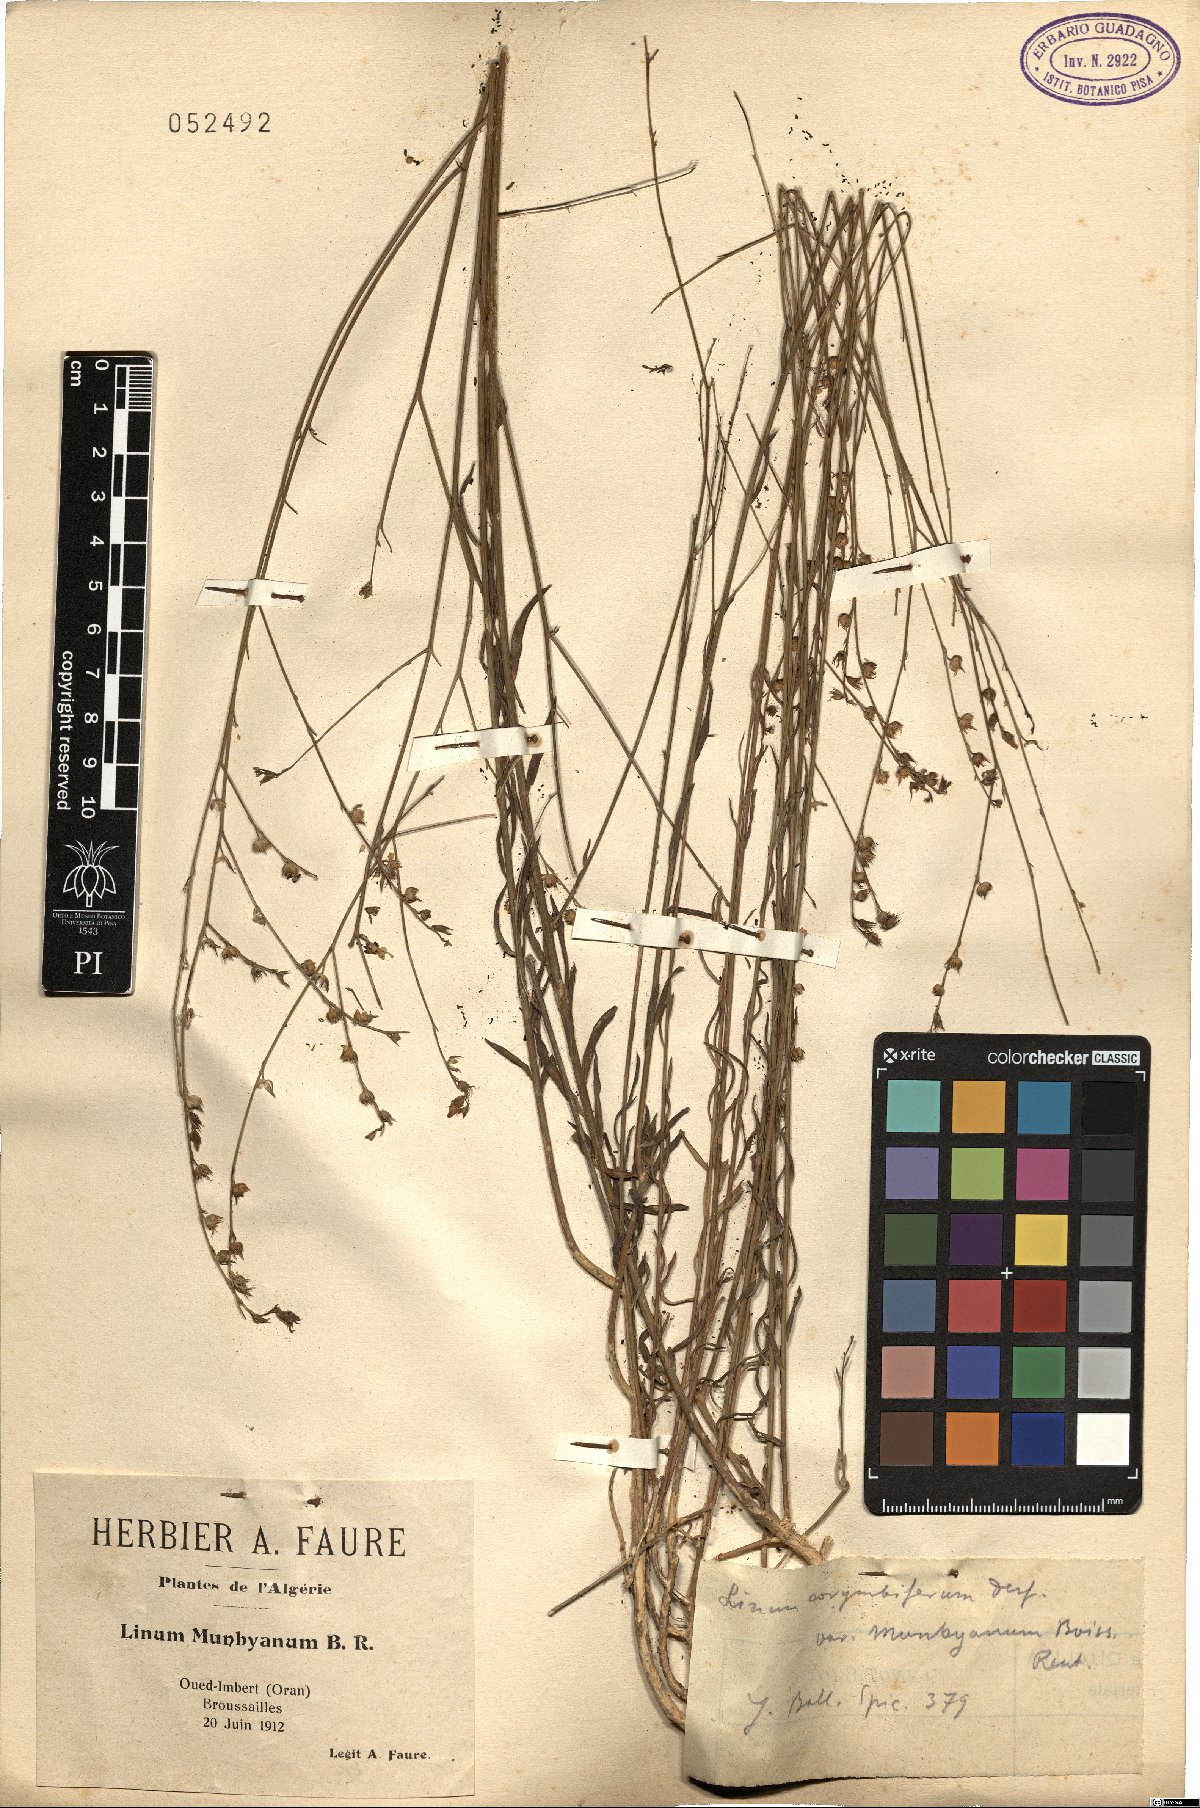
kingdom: Plantae
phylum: Tracheophyta
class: Magnoliopsida
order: Malpighiales
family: Linaceae
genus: Linum
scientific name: Linum tenue
